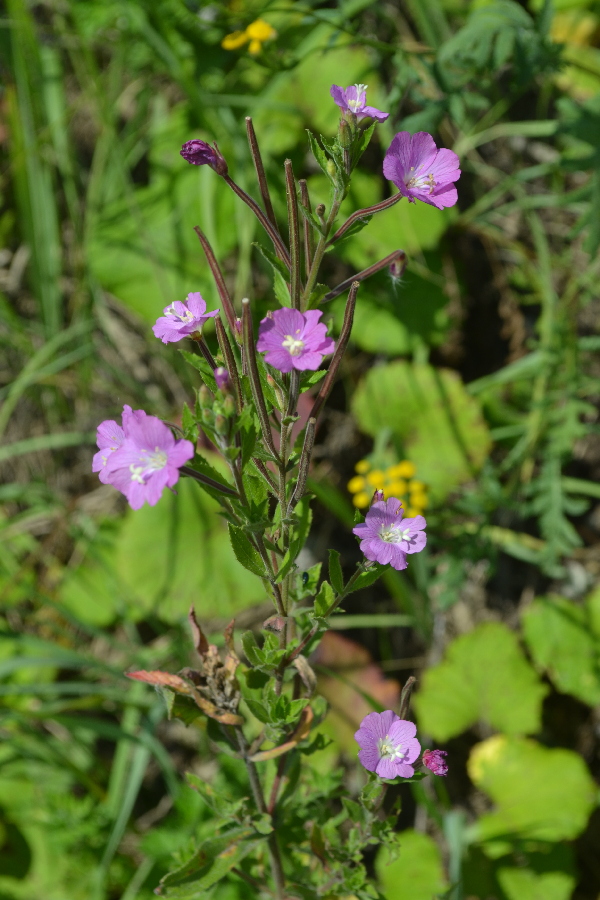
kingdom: Plantae
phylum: Tracheophyta
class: Magnoliopsida
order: Myrtales
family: Onagraceae
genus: Epilobium
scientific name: Epilobium roseum
